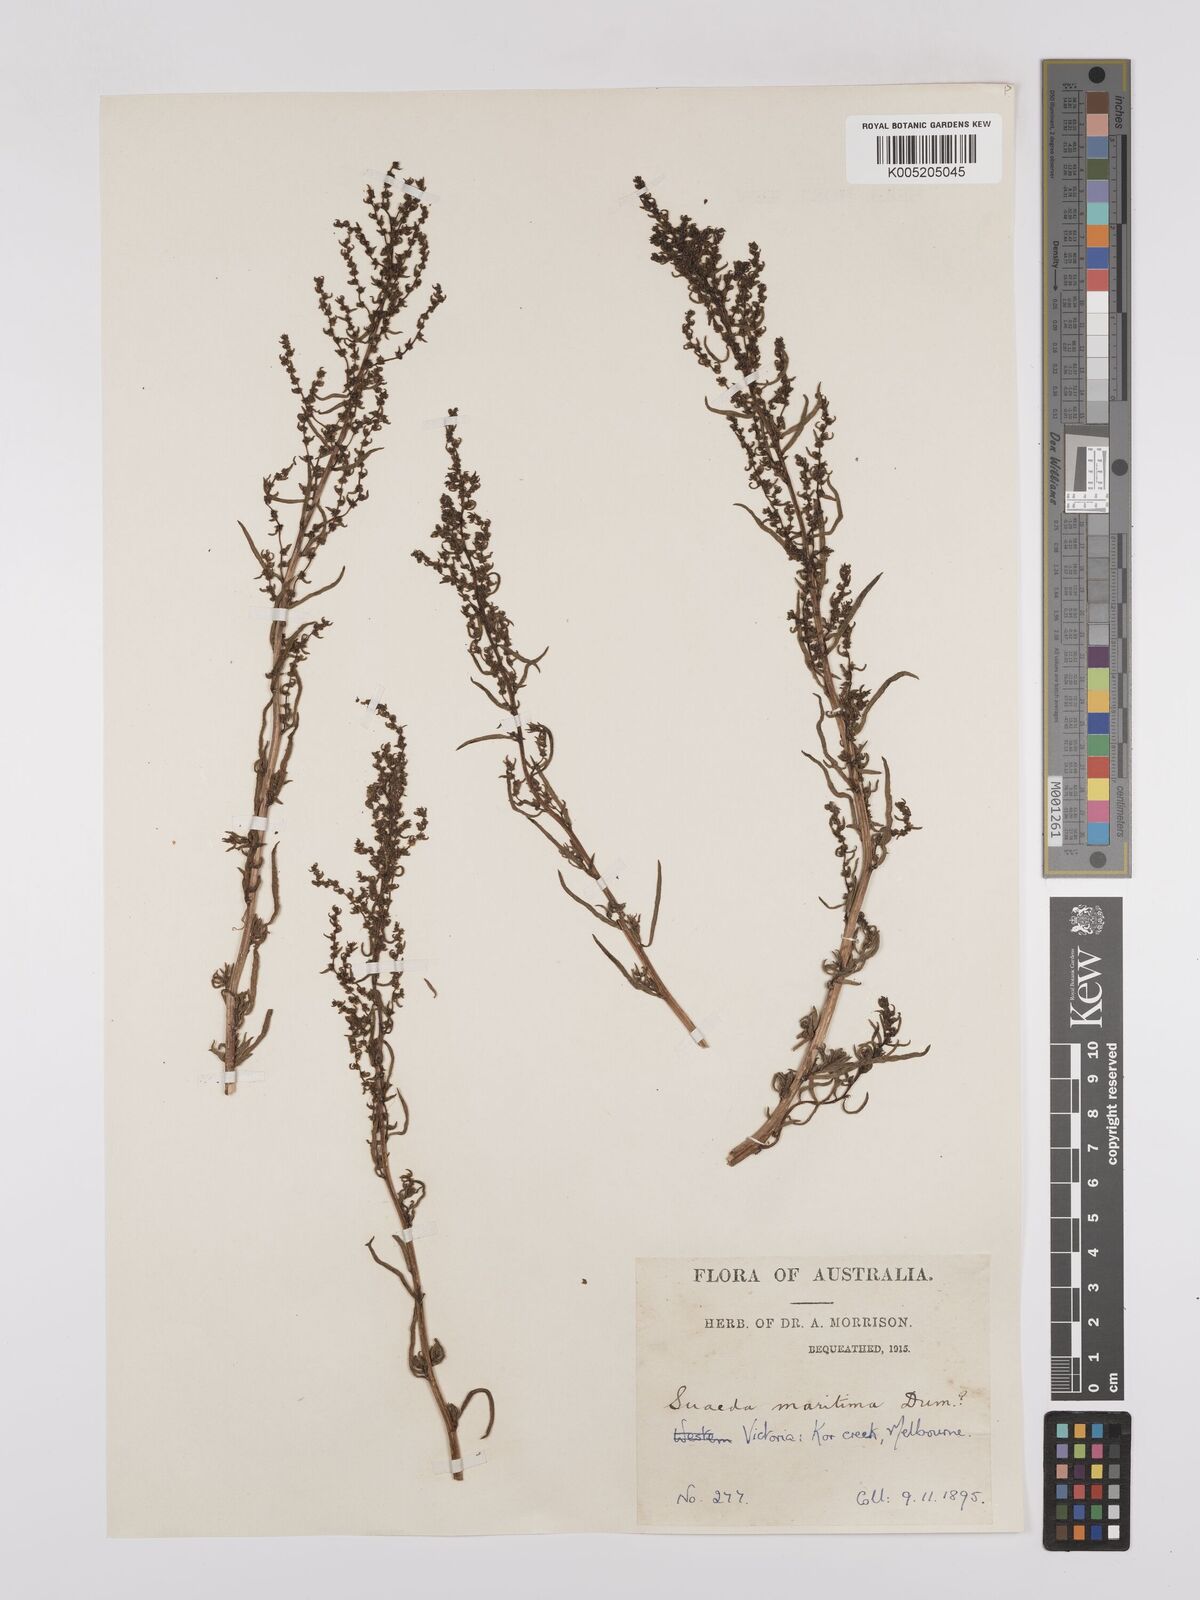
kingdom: Plantae
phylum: Tracheophyta
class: Magnoliopsida
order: Caryophyllales
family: Amaranthaceae
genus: Suaeda
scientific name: Suaeda australis
